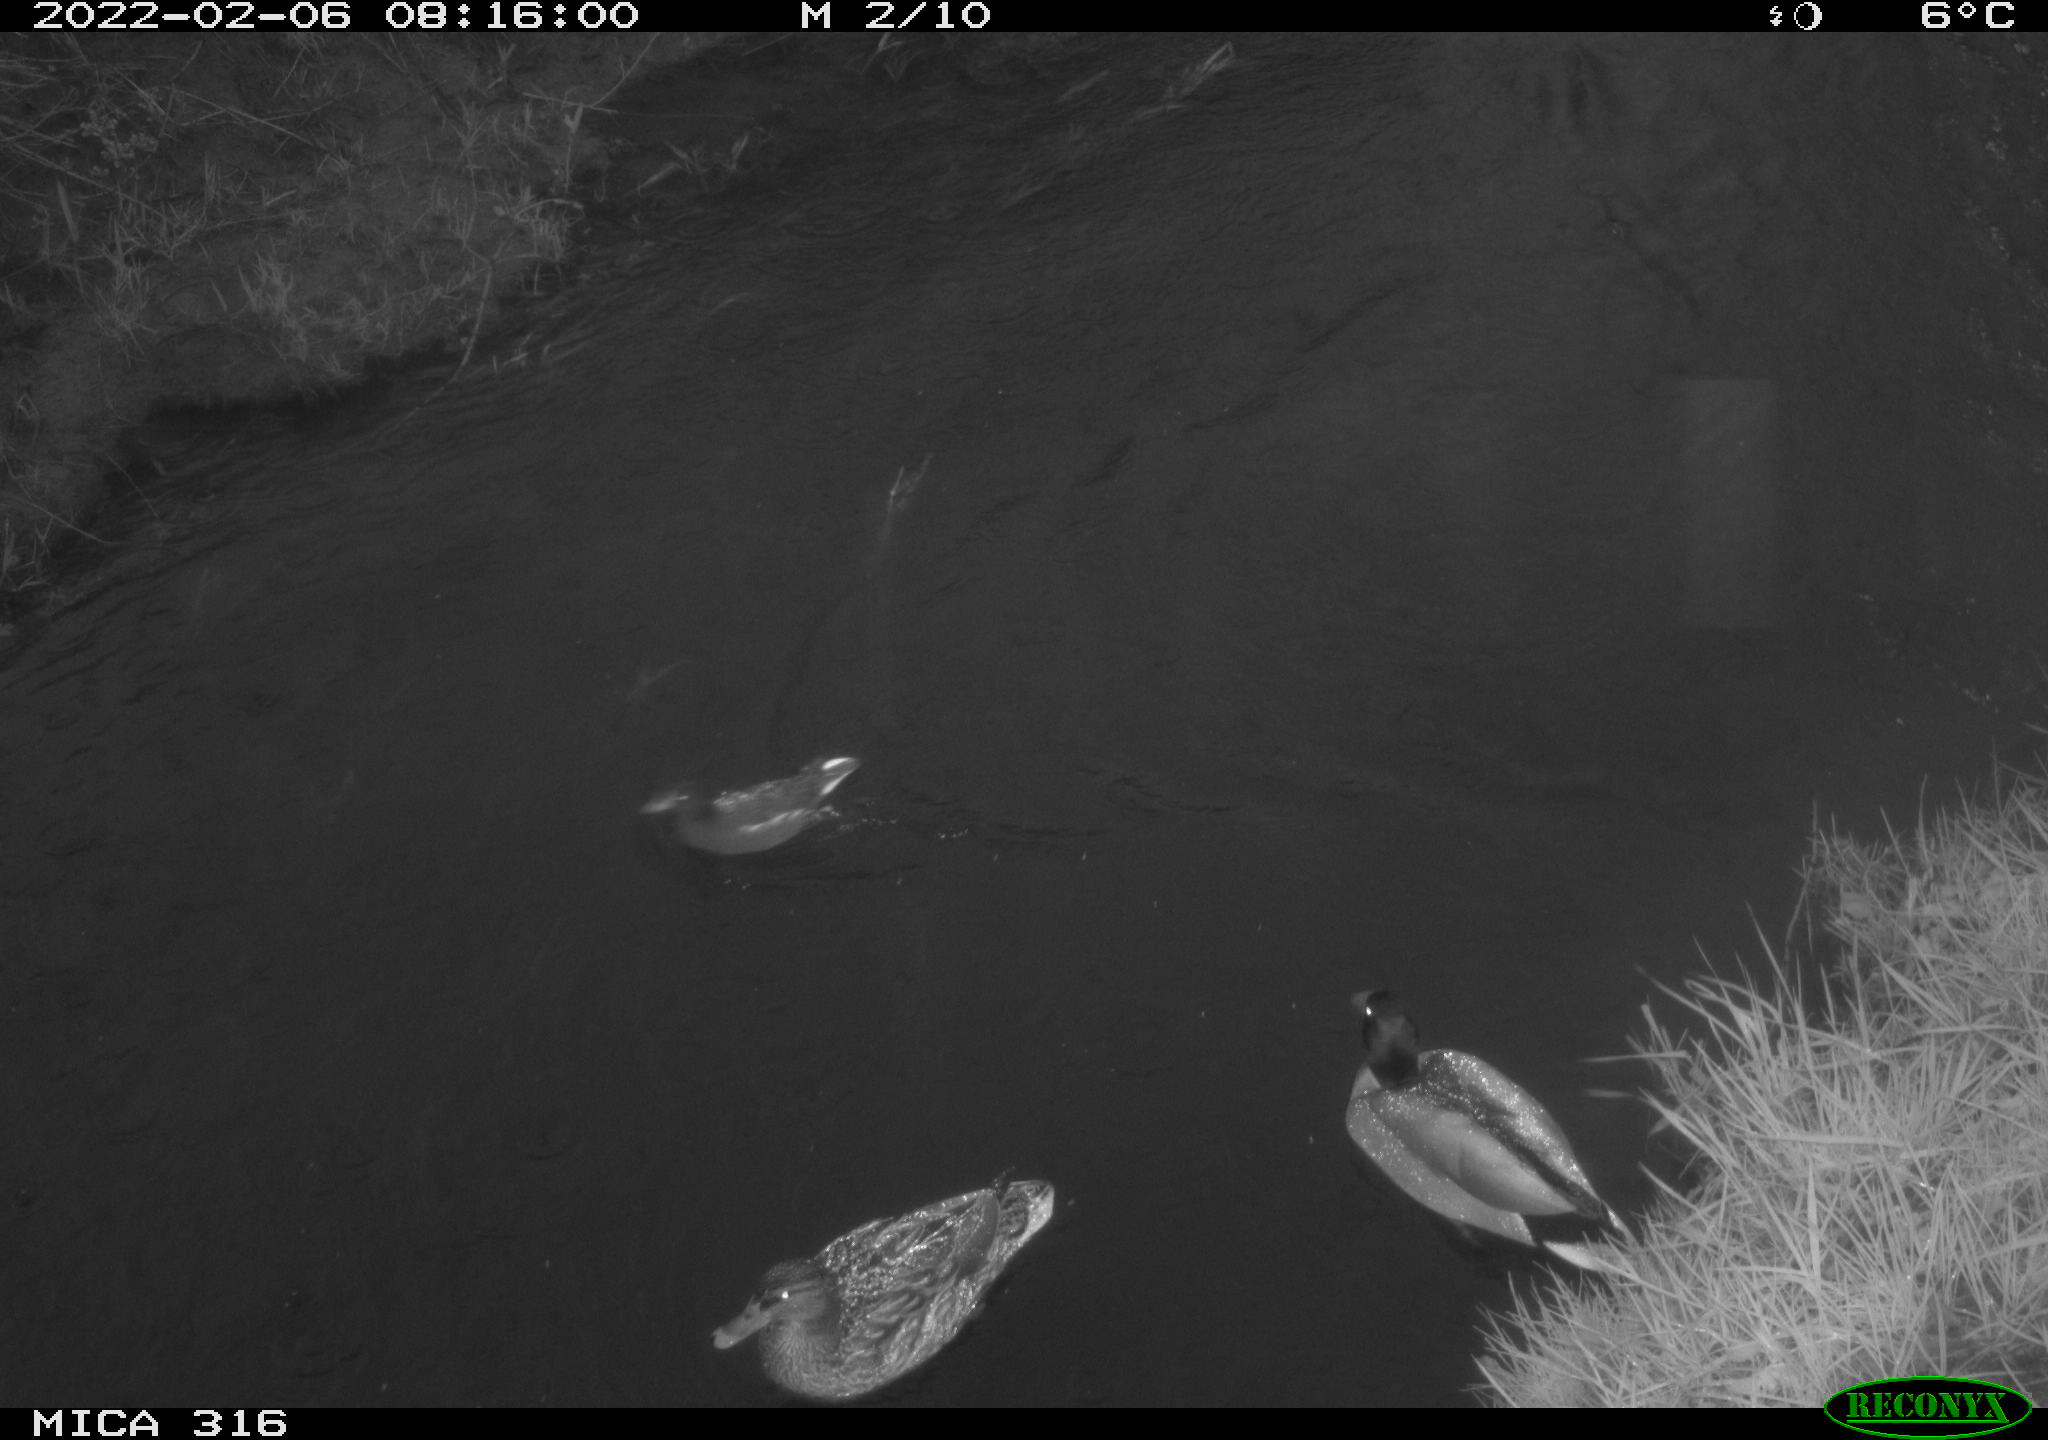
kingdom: Animalia
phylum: Chordata
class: Aves
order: Gruiformes
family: Rallidae
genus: Gallinula
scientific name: Gallinula chloropus
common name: Common moorhen
